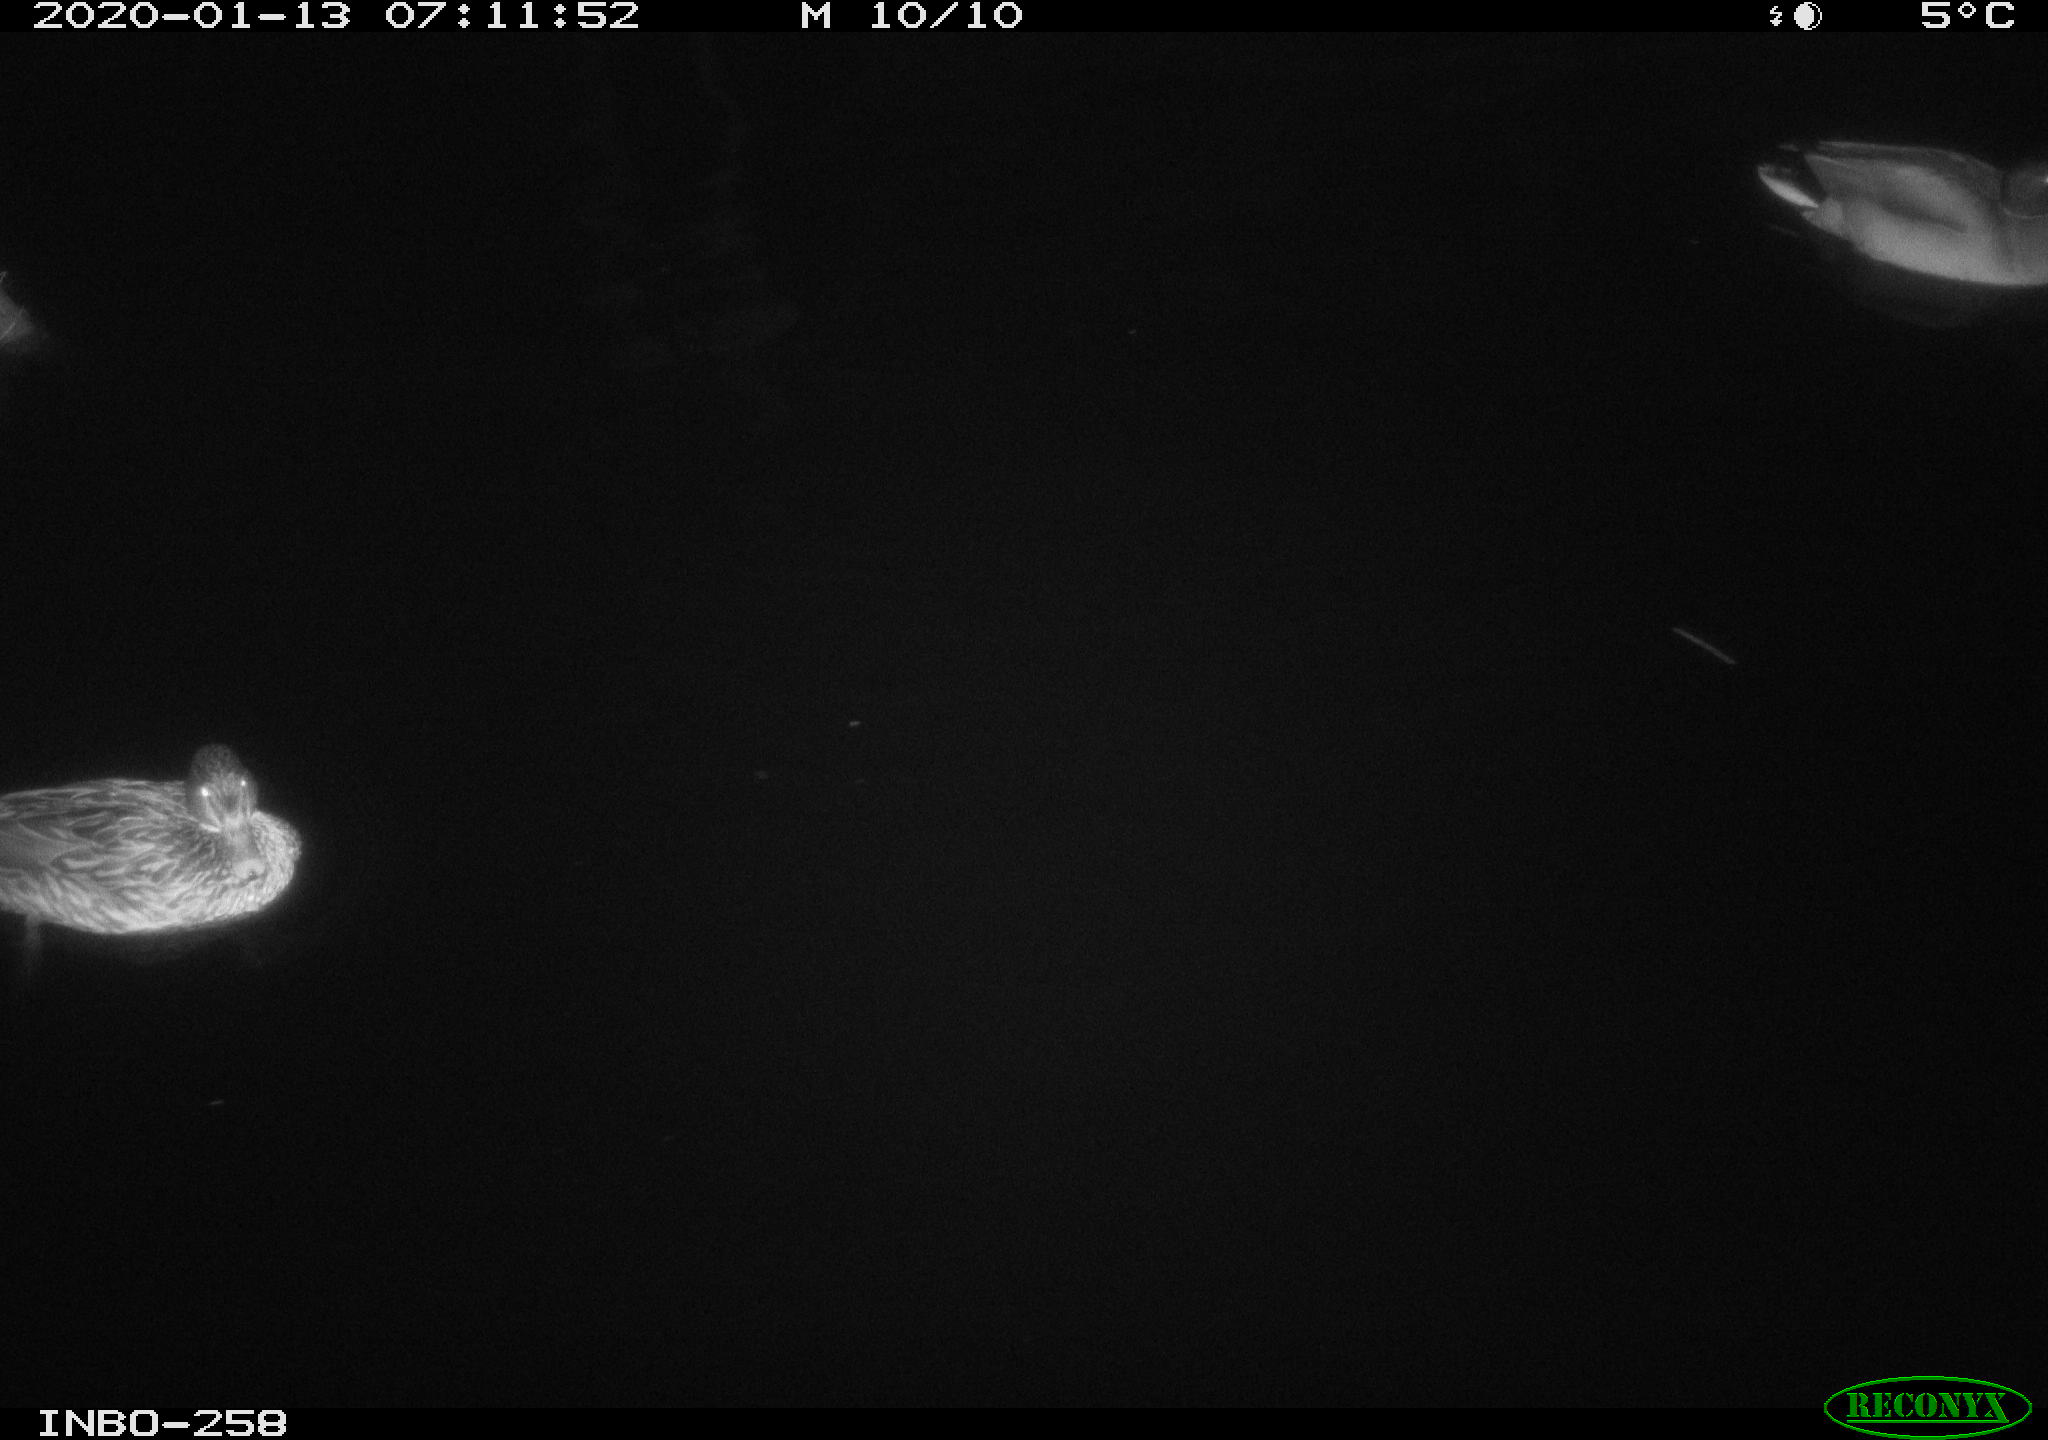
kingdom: Animalia
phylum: Chordata
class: Aves
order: Anseriformes
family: Anatidae
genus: Anas
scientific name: Anas platyrhynchos
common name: Mallard
